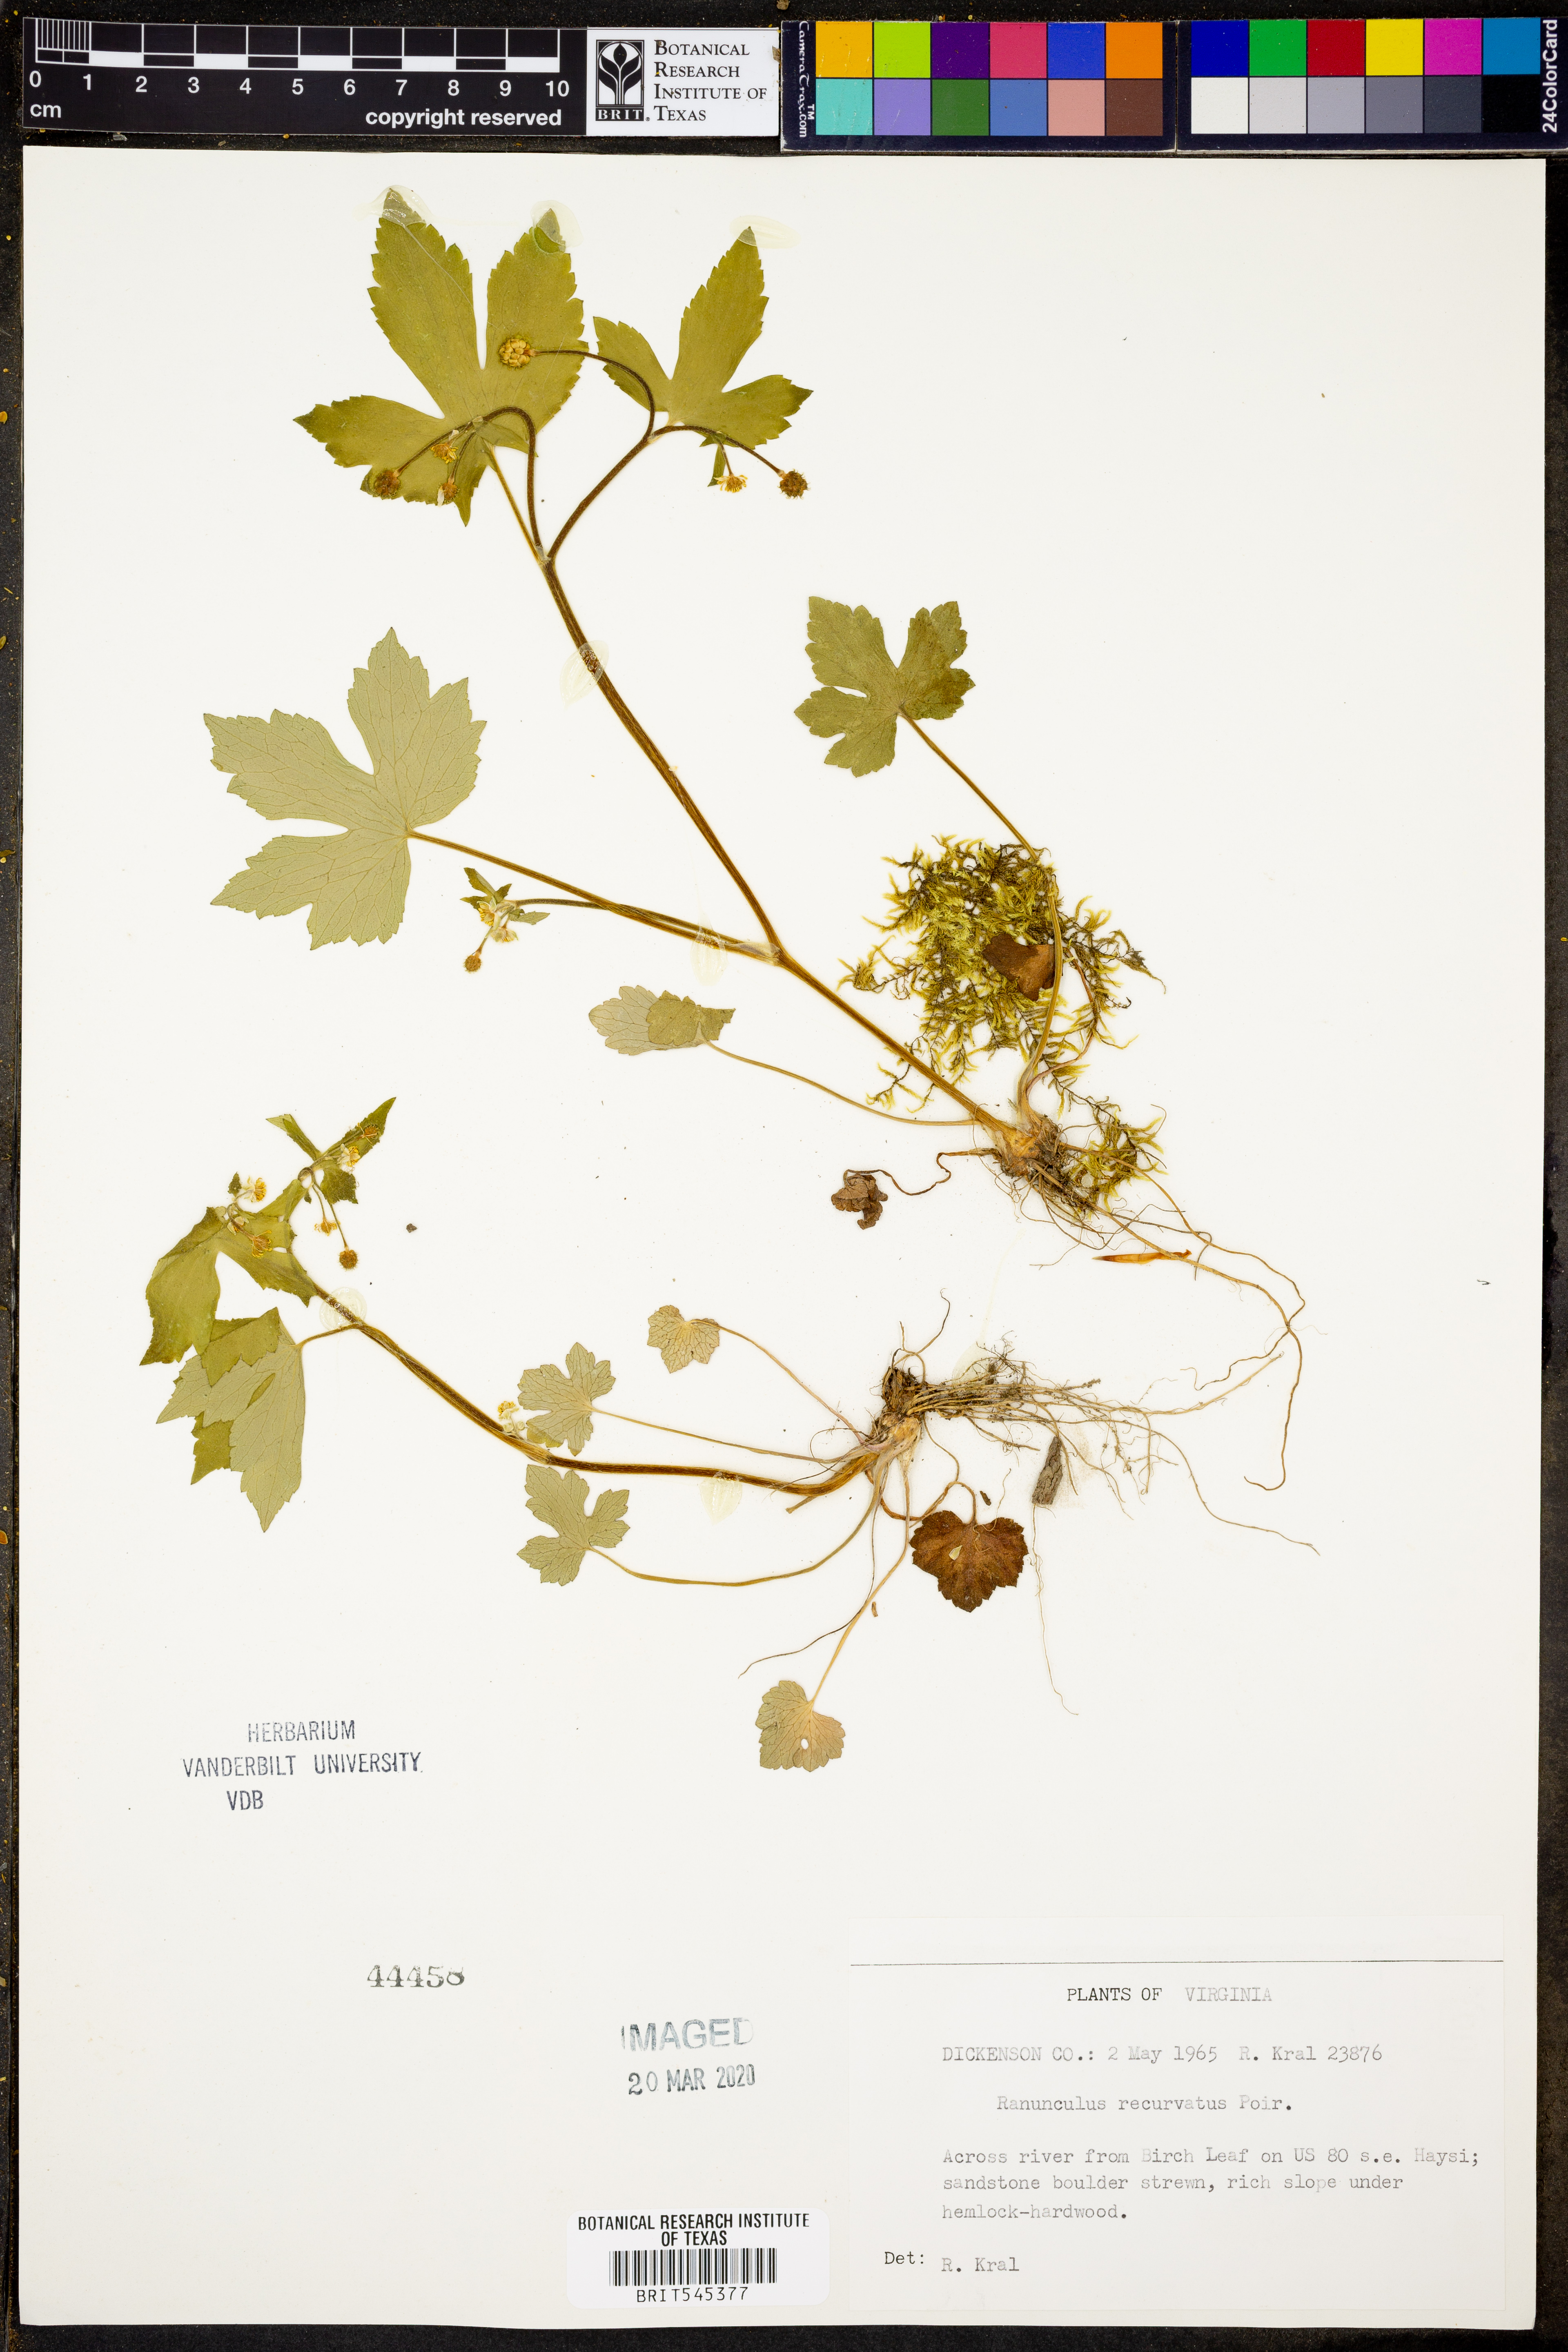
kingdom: Plantae
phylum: Tracheophyta
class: Magnoliopsida
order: Ranunculales
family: Ranunculaceae
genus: Ranunculus
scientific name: Ranunculus recurvatus
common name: Blisterwort
